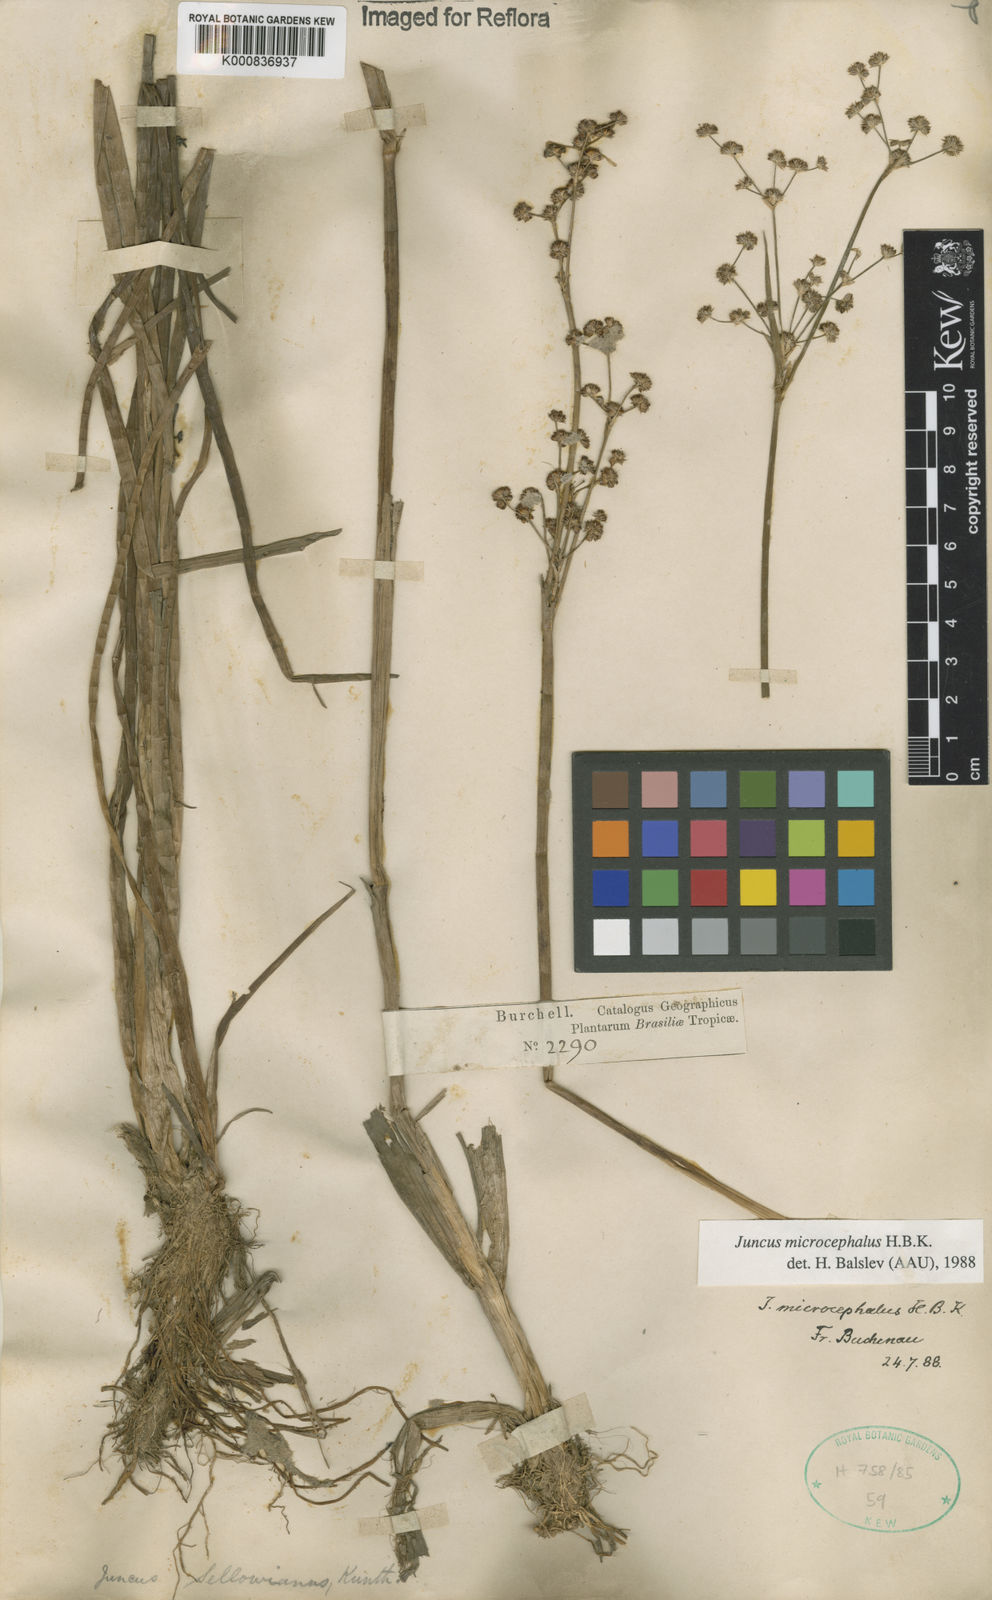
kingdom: Plantae
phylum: Tracheophyta
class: Liliopsida
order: Poales
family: Juncaceae
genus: Juncus
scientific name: Juncus microcephalus
